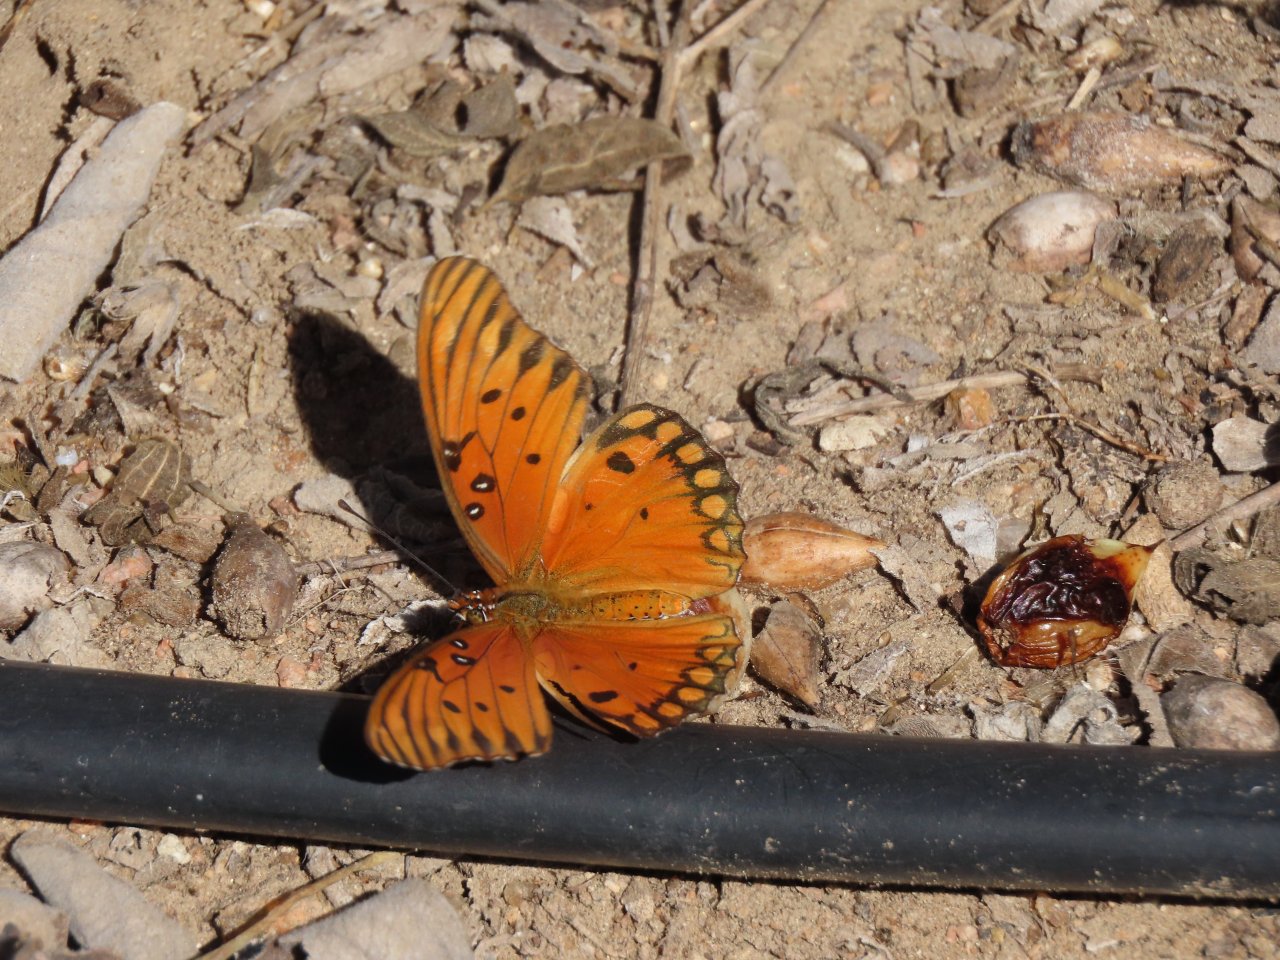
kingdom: Animalia
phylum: Arthropoda
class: Insecta
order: Lepidoptera
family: Nymphalidae
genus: Dione
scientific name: Dione vanillae
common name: Gulf Fritillary
